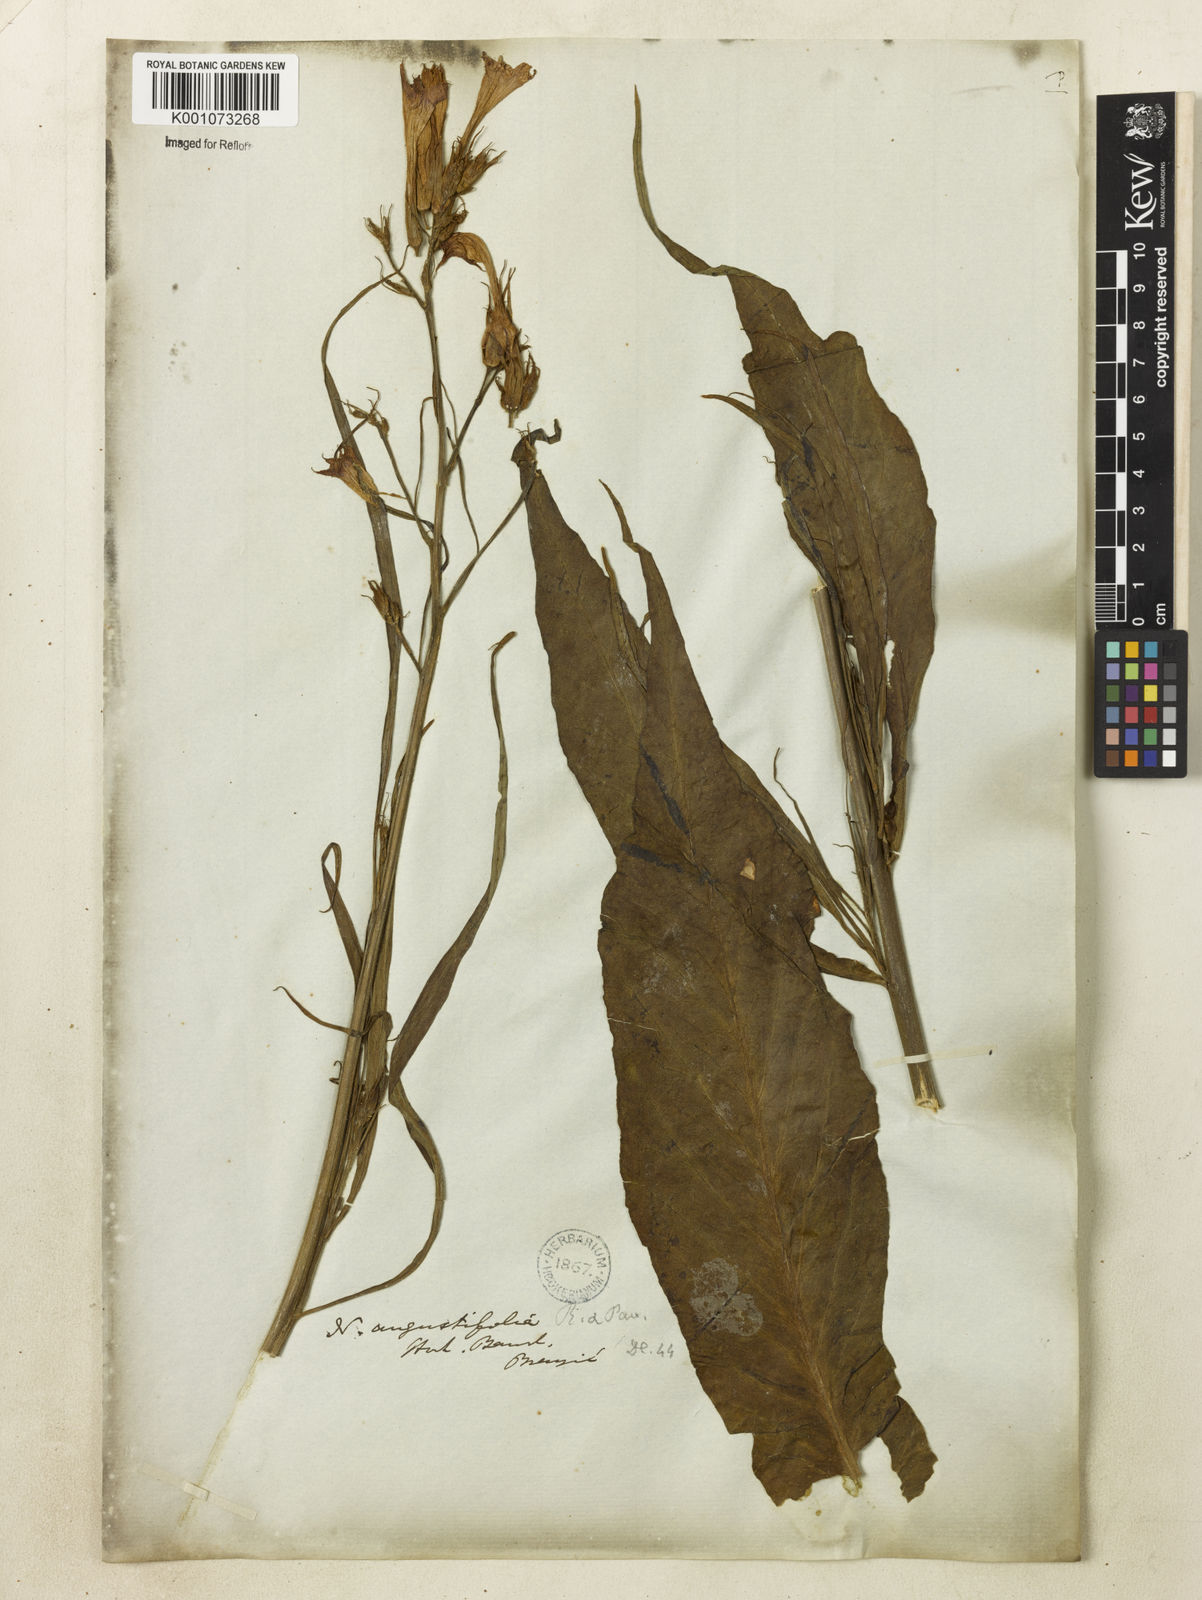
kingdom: Plantae
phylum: Tracheophyta
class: Magnoliopsida
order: Solanales
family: Solanaceae
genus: Nicotiana
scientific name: Nicotiana tabacum
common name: Tobacco
